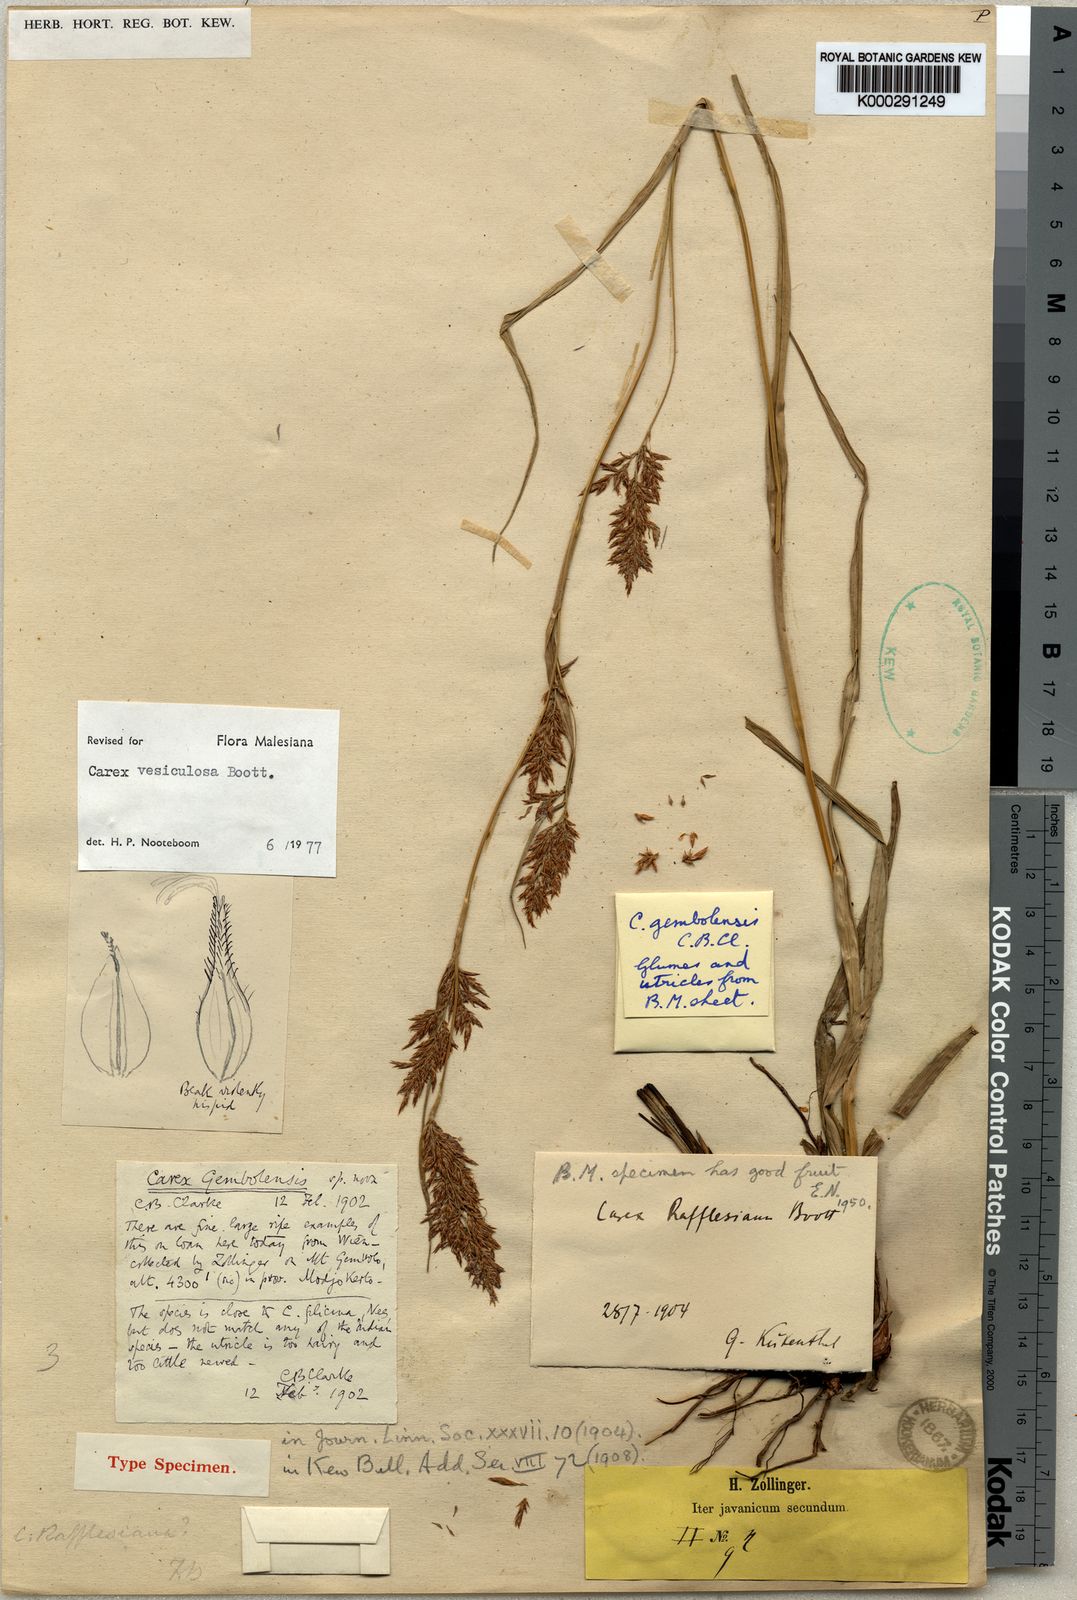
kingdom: Plantae
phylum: Tracheophyta
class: Liliopsida
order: Poales
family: Cyperaceae
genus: Carex
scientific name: Carex vesiculosa
